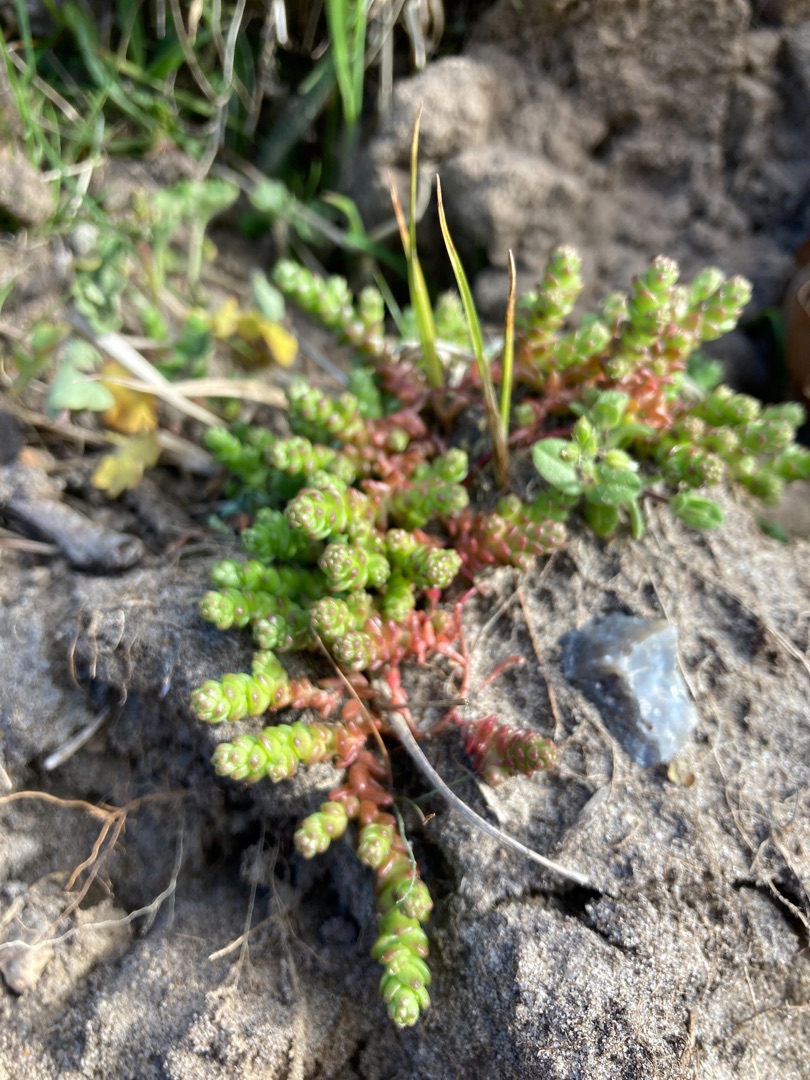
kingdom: Plantae
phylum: Tracheophyta
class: Magnoliopsida
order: Saxifragales
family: Crassulaceae
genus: Sedum
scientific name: Sedum acre
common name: Bidende stenurt
